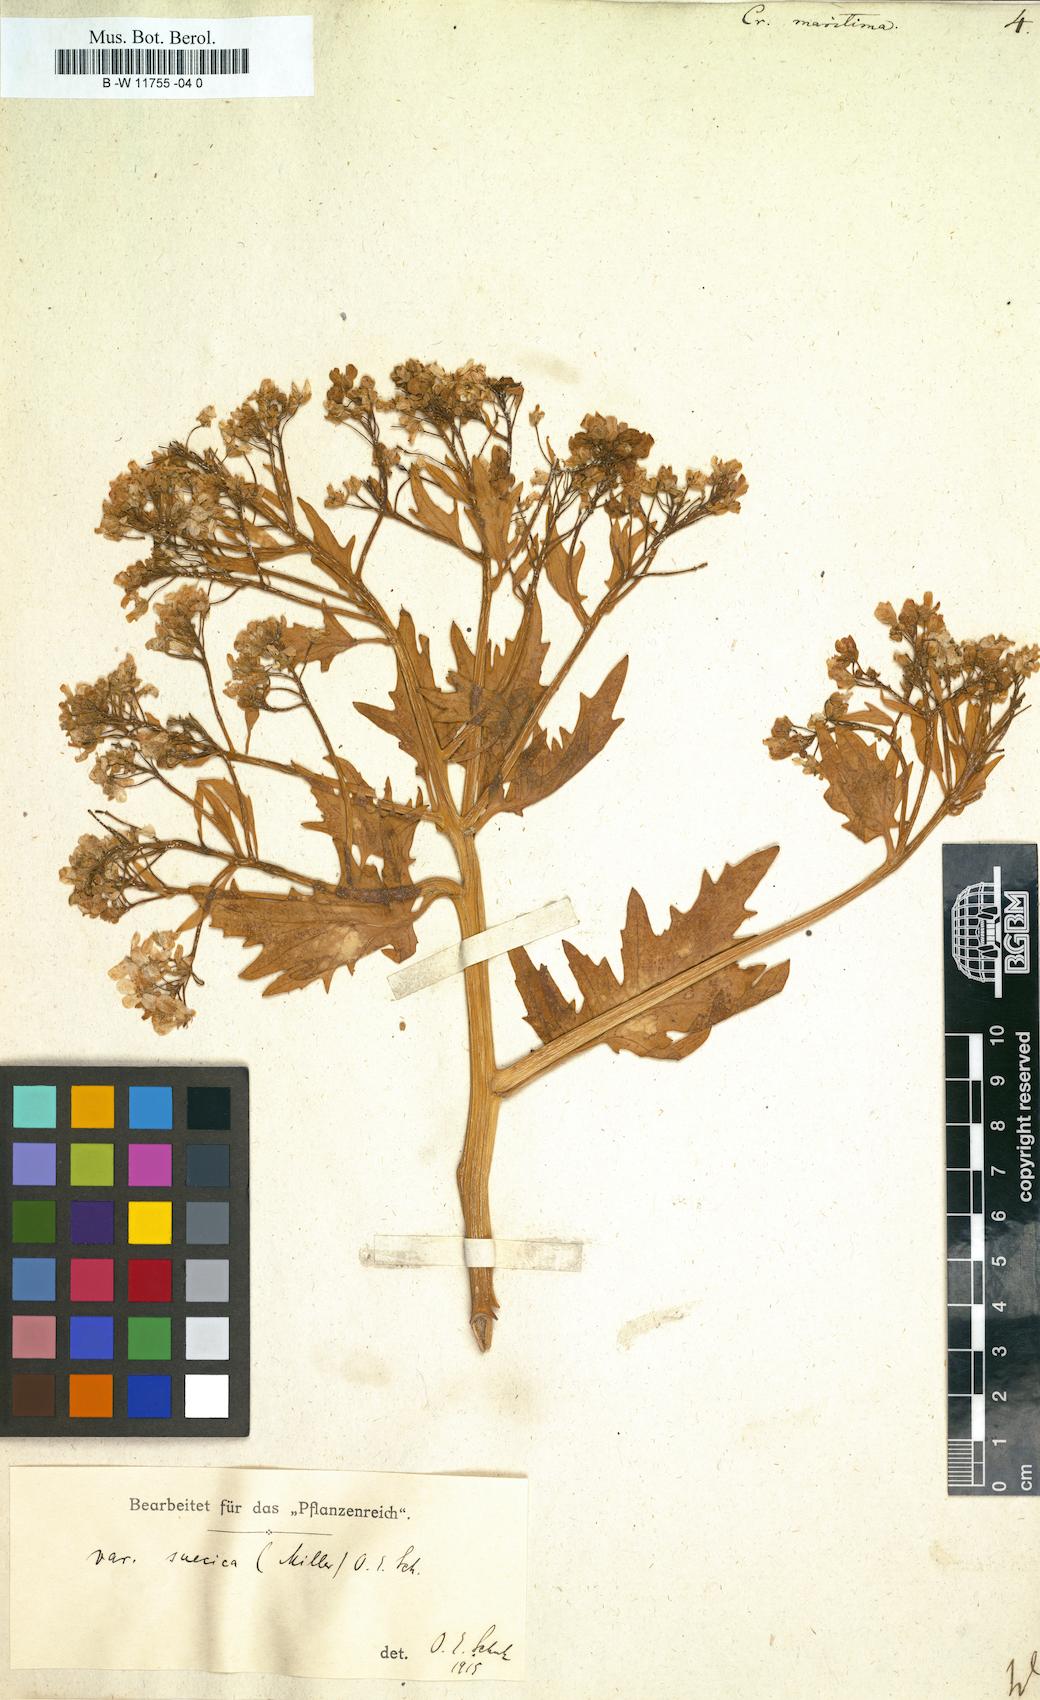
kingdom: Plantae
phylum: Tracheophyta
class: Magnoliopsida
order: Brassicales
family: Brassicaceae
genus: Crambe
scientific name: Crambe maritima
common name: Sea-kale
